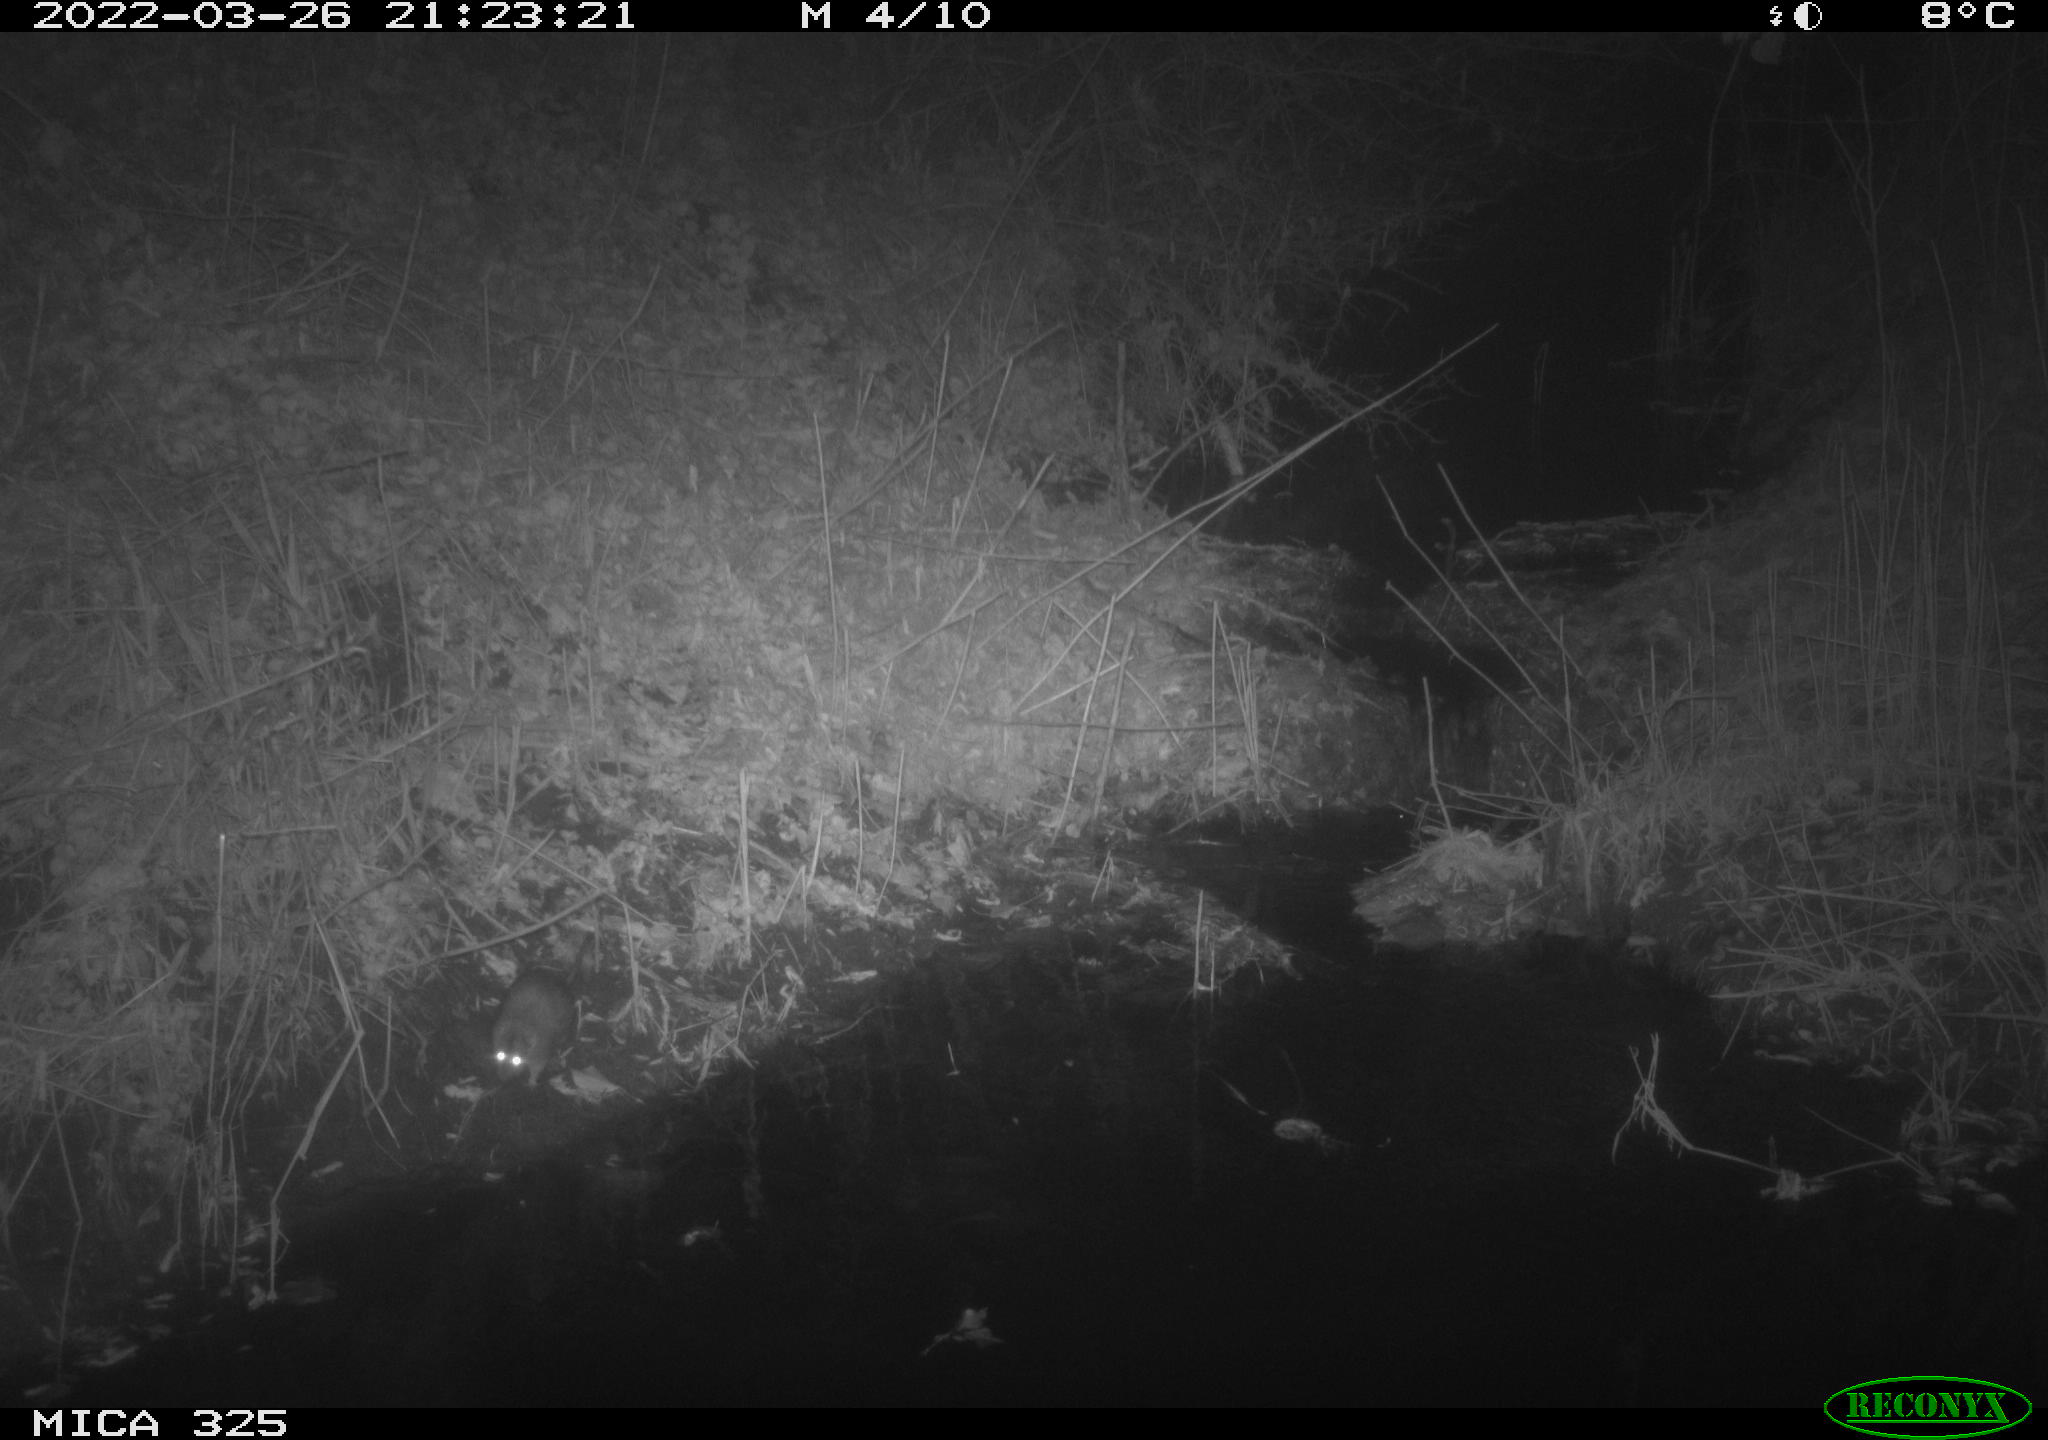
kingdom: Animalia
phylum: Chordata
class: Mammalia
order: Rodentia
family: Muridae
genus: Rattus
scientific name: Rattus norvegicus
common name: Brown rat
